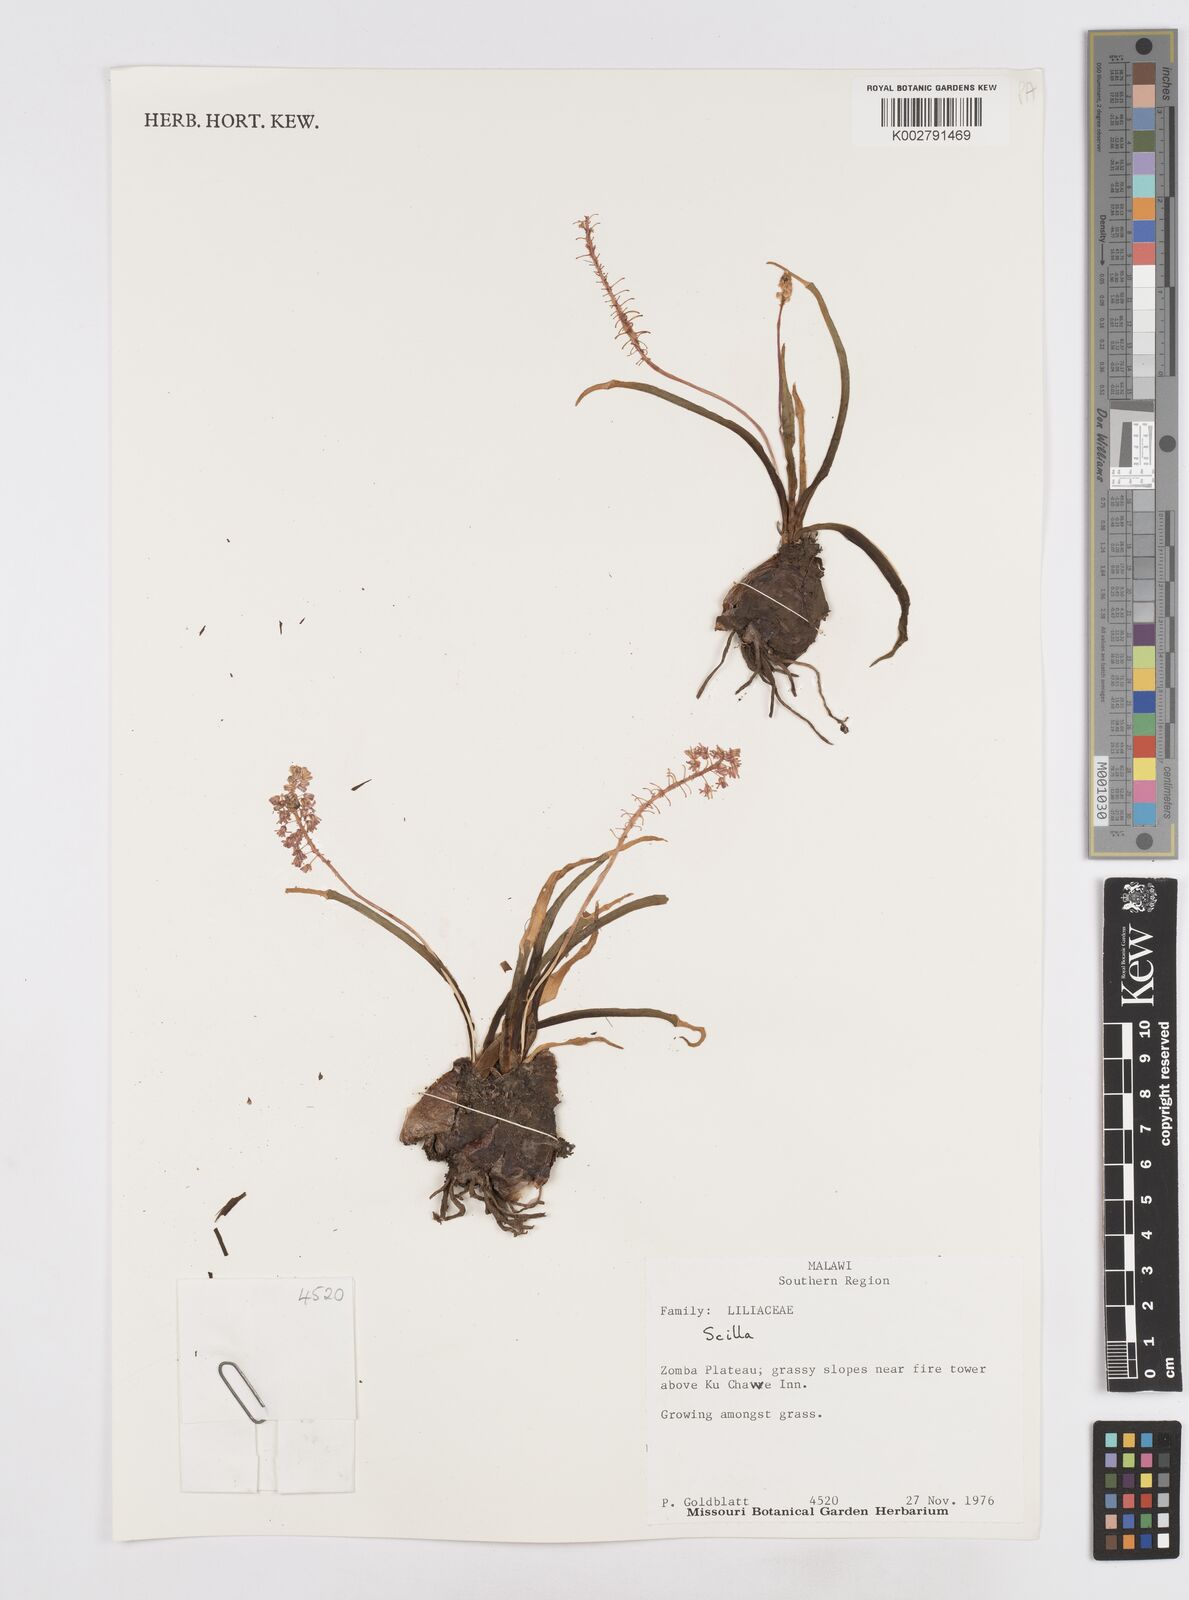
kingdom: Plantae
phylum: Tracheophyta
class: Liliopsida
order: Asparagales
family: Asparagaceae
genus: Scilla
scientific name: Scilla
